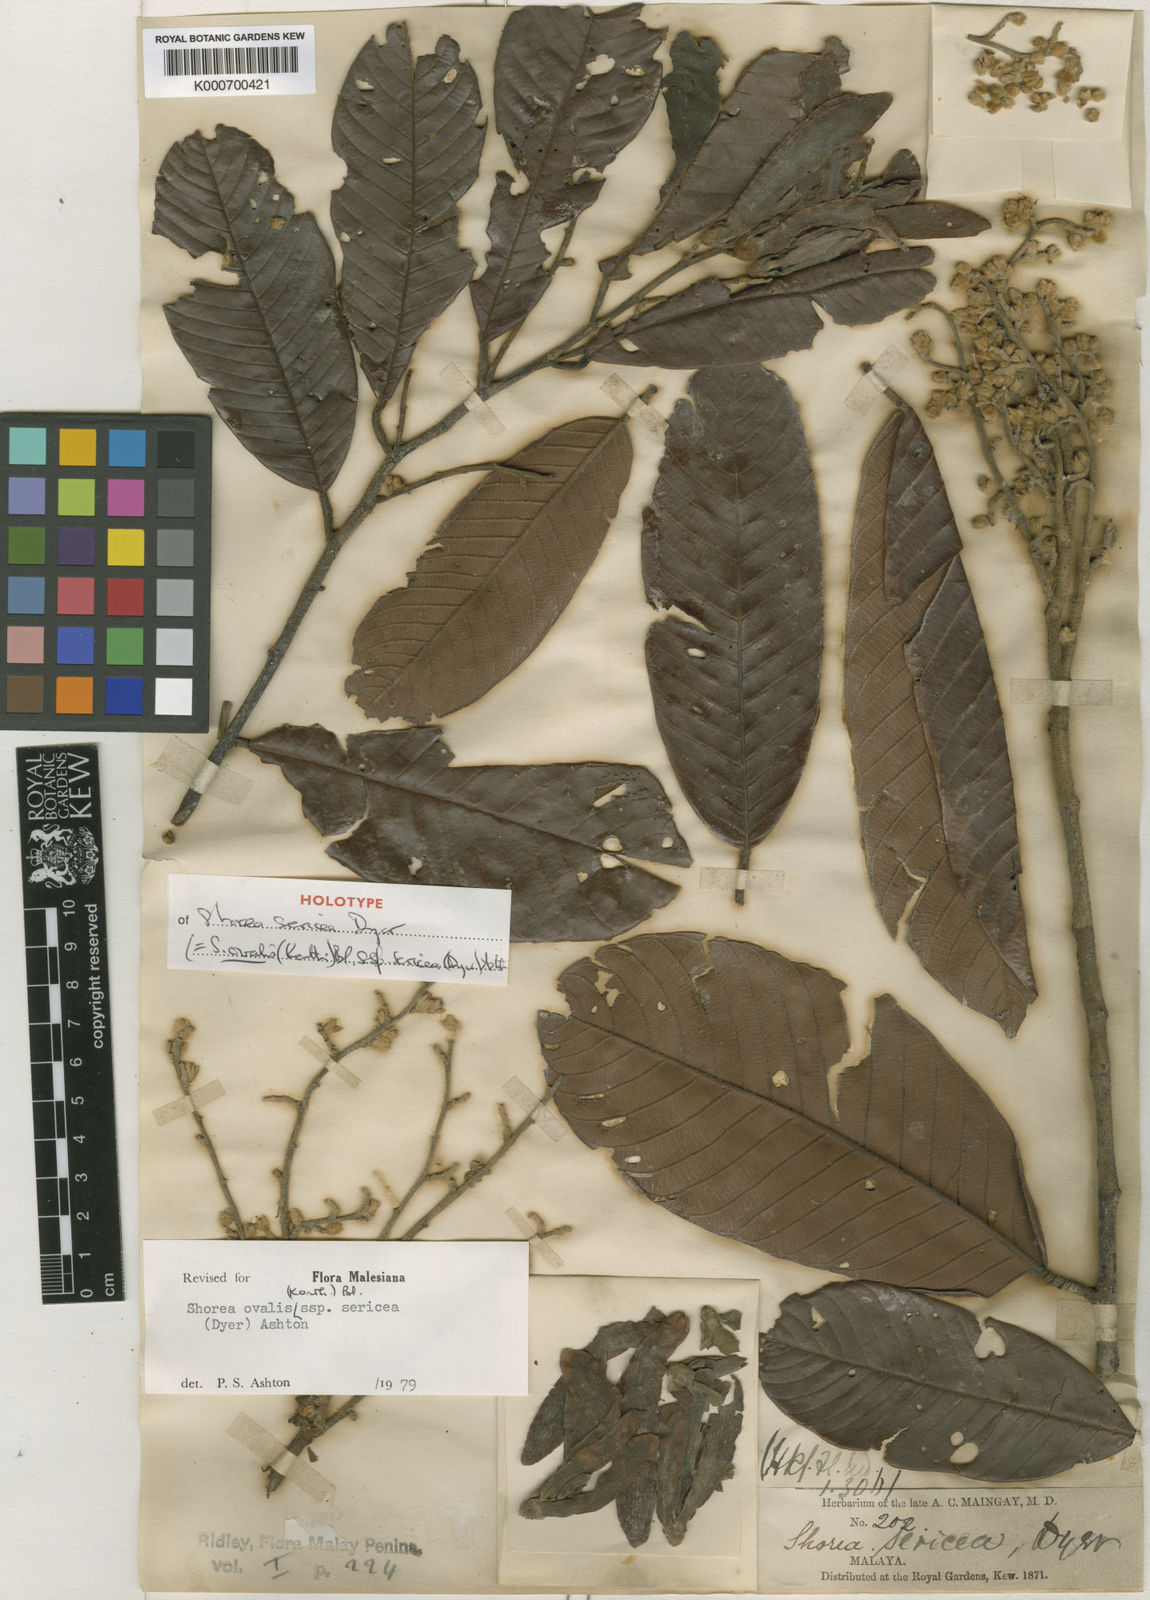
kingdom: Plantae
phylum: Tracheophyta
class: Magnoliopsida
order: Malvales
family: Dipterocarpaceae
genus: Shorea
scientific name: Shorea ovalis
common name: Light red meranti
